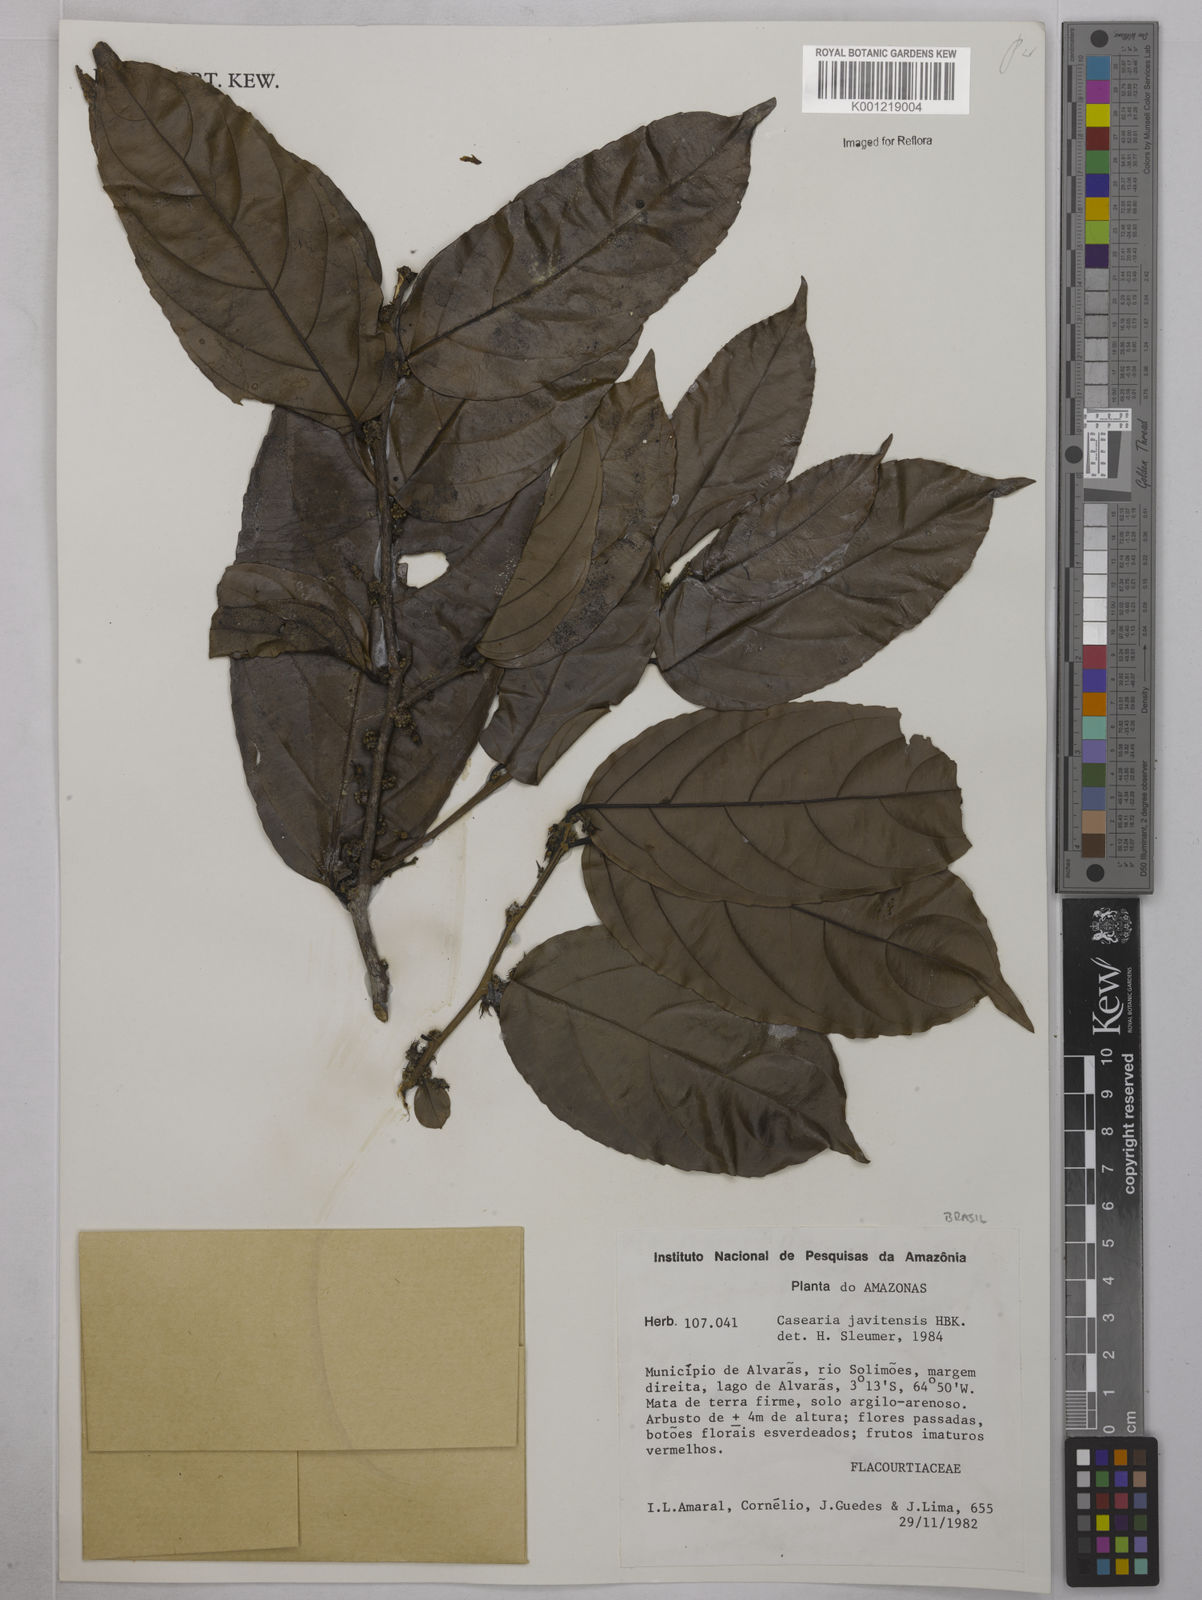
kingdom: Plantae
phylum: Tracheophyta
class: Magnoliopsida
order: Malpighiales
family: Salicaceae
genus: Piparea
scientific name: Piparea multiflora
